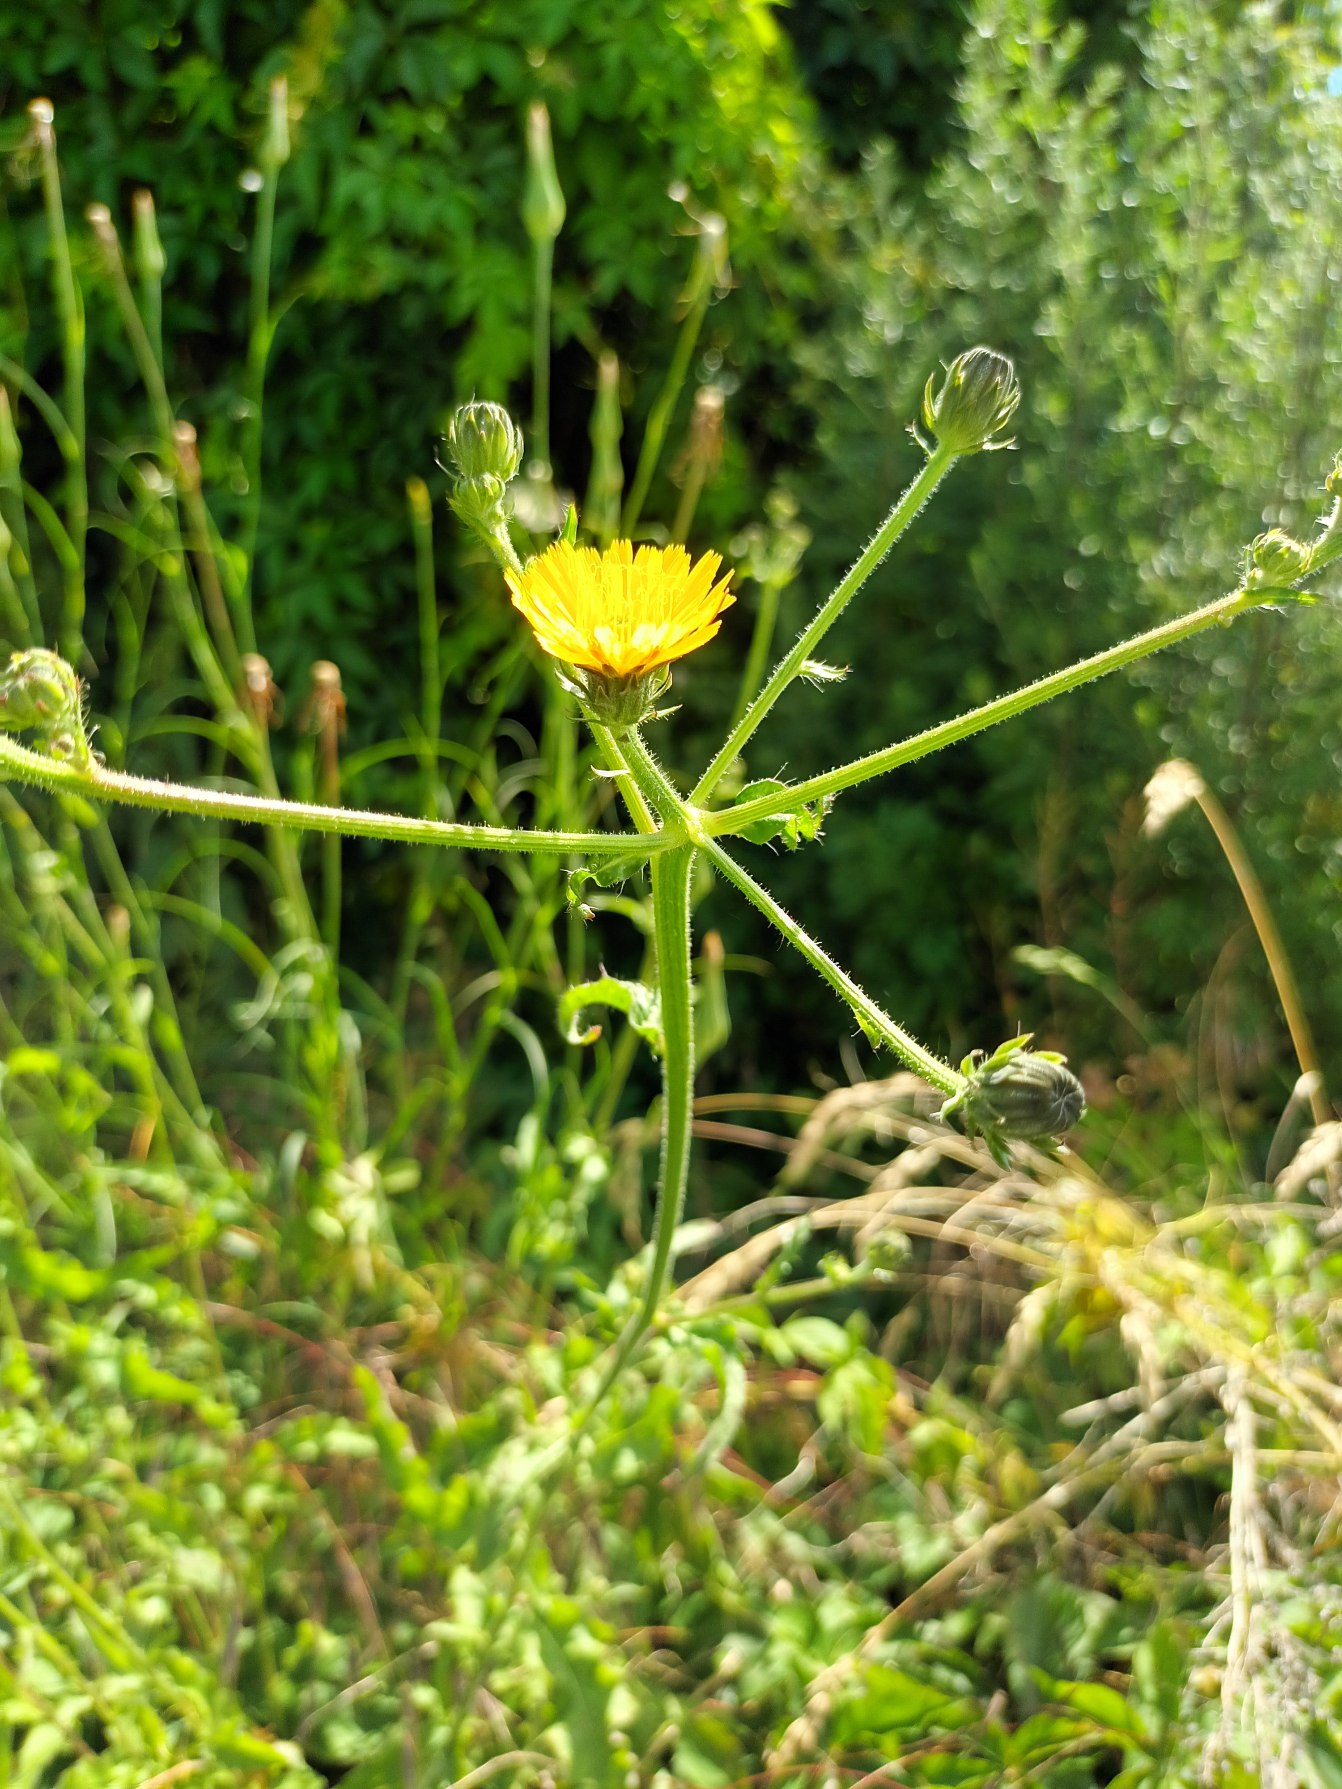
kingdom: Plantae
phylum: Tracheophyta
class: Magnoliopsida
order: Asterales
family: Asteraceae
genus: Picris
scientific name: Picris hieracioides
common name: Ru bittermælk
